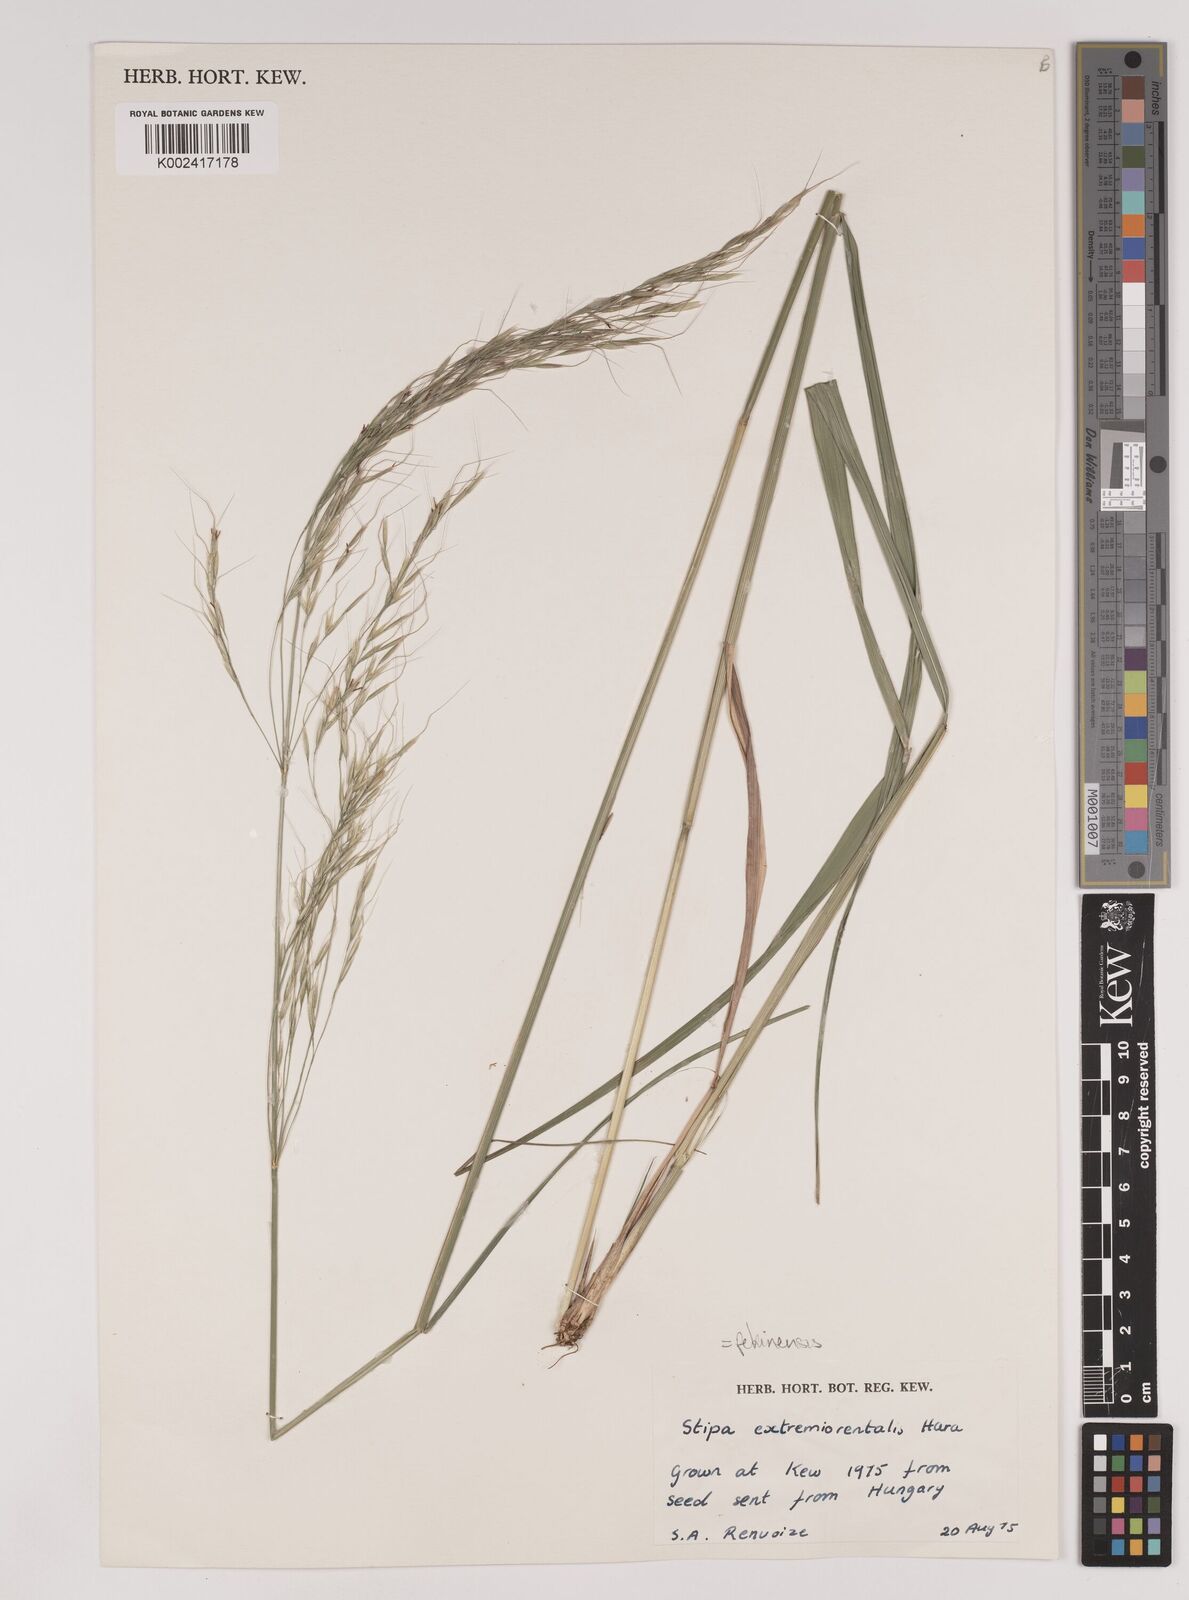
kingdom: Plantae
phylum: Tracheophyta
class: Liliopsida
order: Poales
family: Poaceae
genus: Achnatherum
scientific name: Achnatherum pekinense
